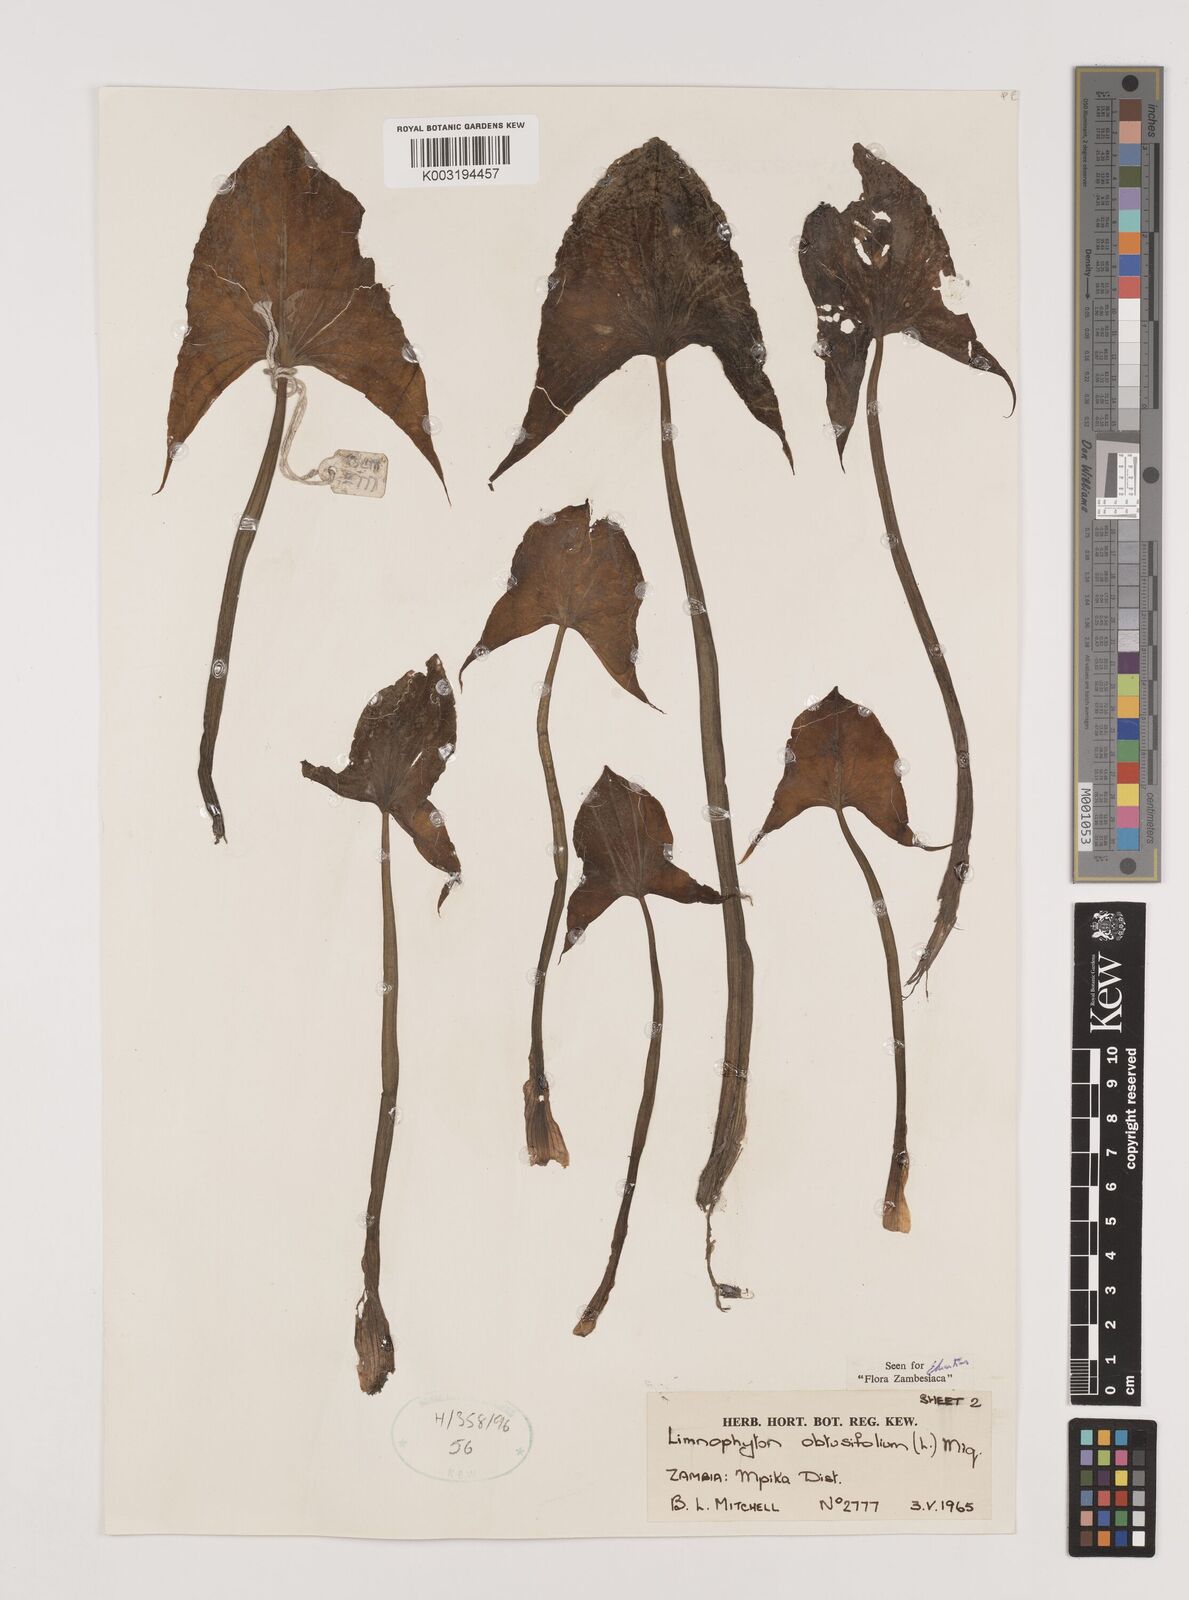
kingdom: Plantae
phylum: Tracheophyta
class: Liliopsida
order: Alismatales
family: Alismataceae
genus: Limnophyton
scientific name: Limnophyton obtusifolium
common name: Arrow head
